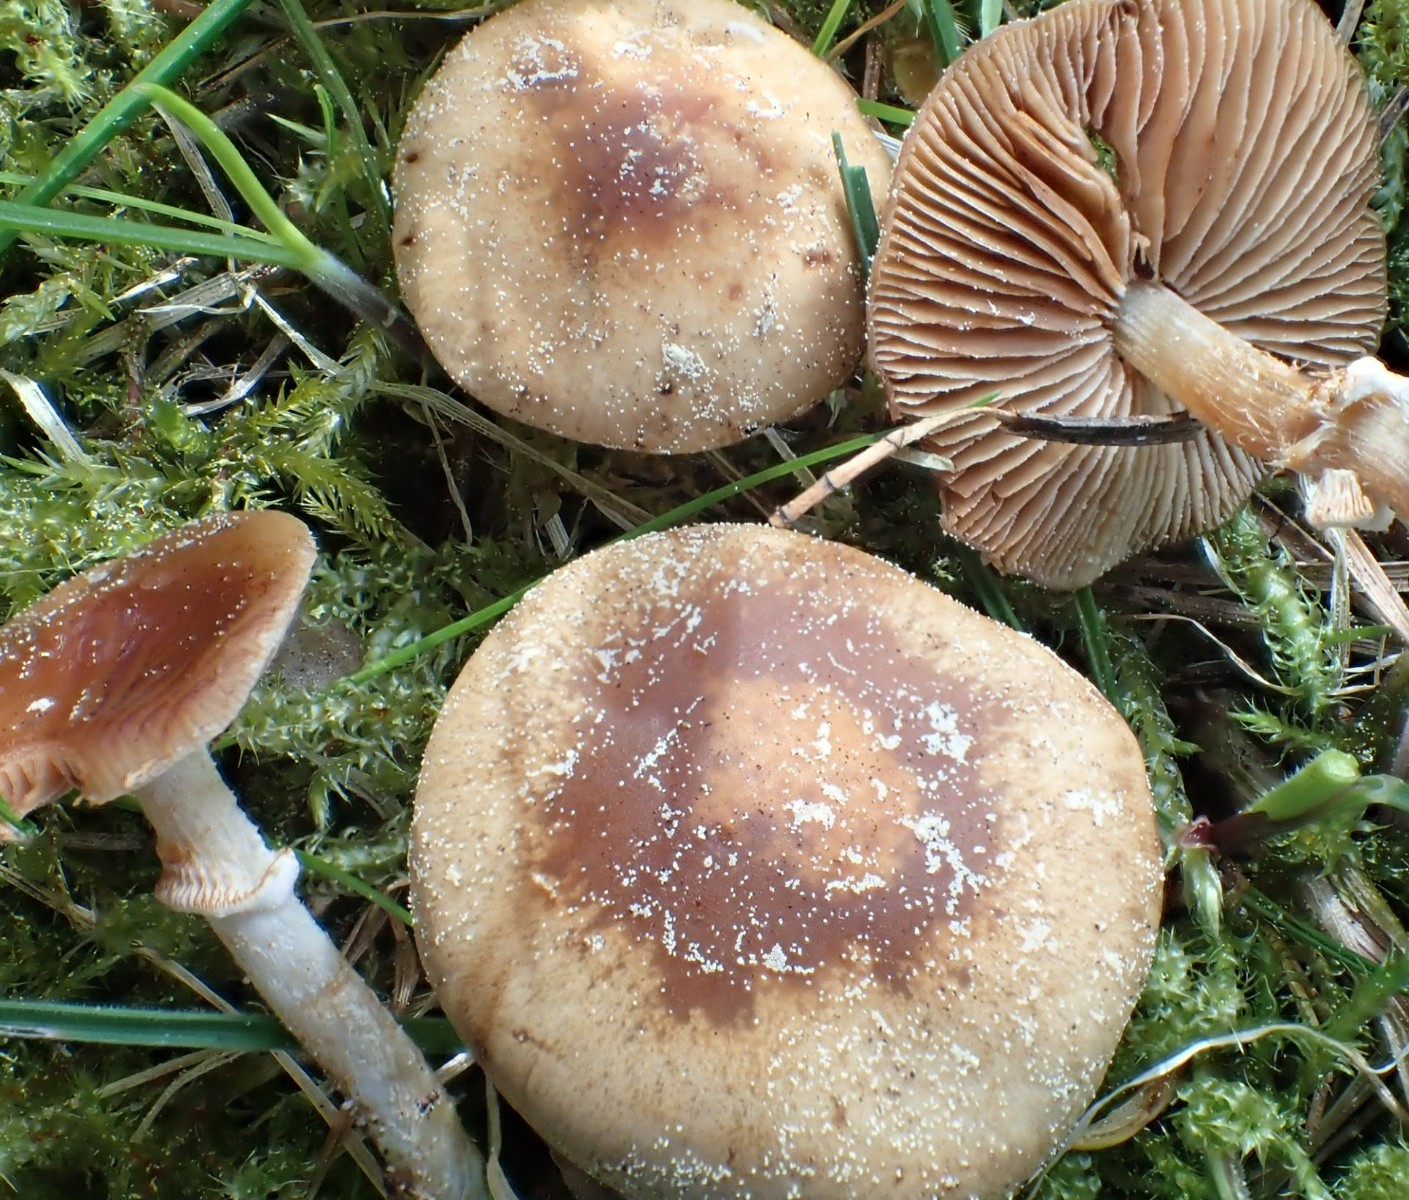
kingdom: Fungi
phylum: Basidiomycota
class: Agaricomycetes
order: Agaricales
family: Bolbitiaceae
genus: Conocybe
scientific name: Conocybe aporos
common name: tidlig dansehat
